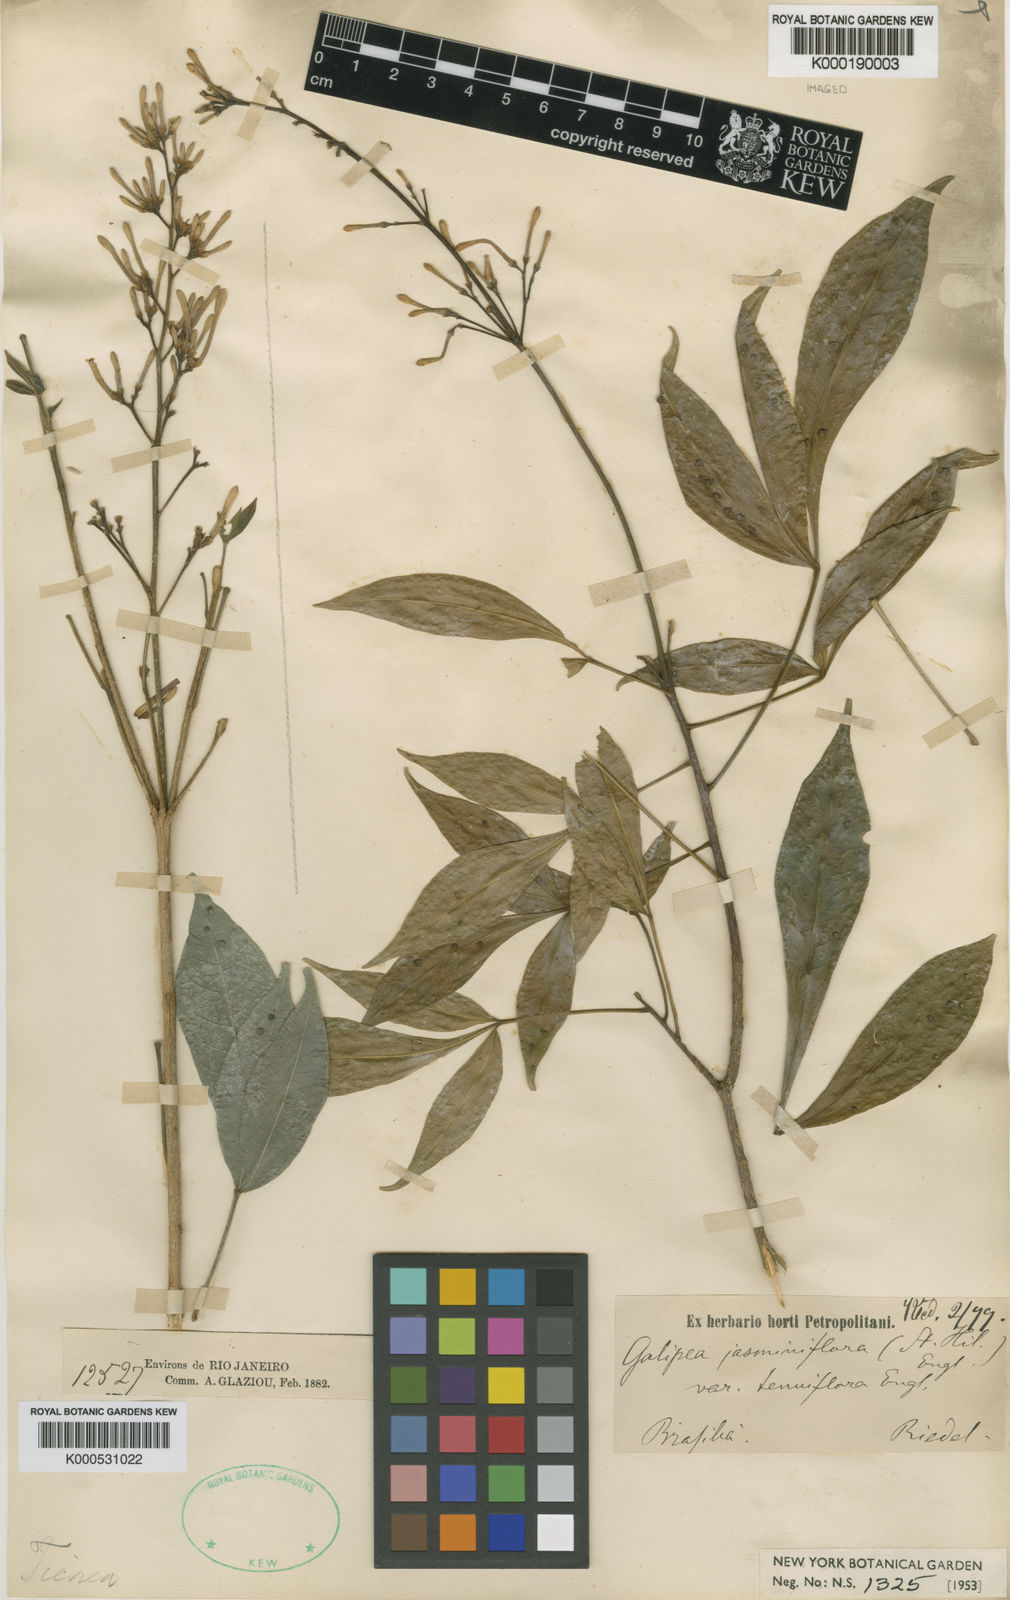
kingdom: Plantae
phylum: Tracheophyta
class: Magnoliopsida
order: Sapindales
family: Rutaceae
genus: Galipea
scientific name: Galipea jasminiflora
